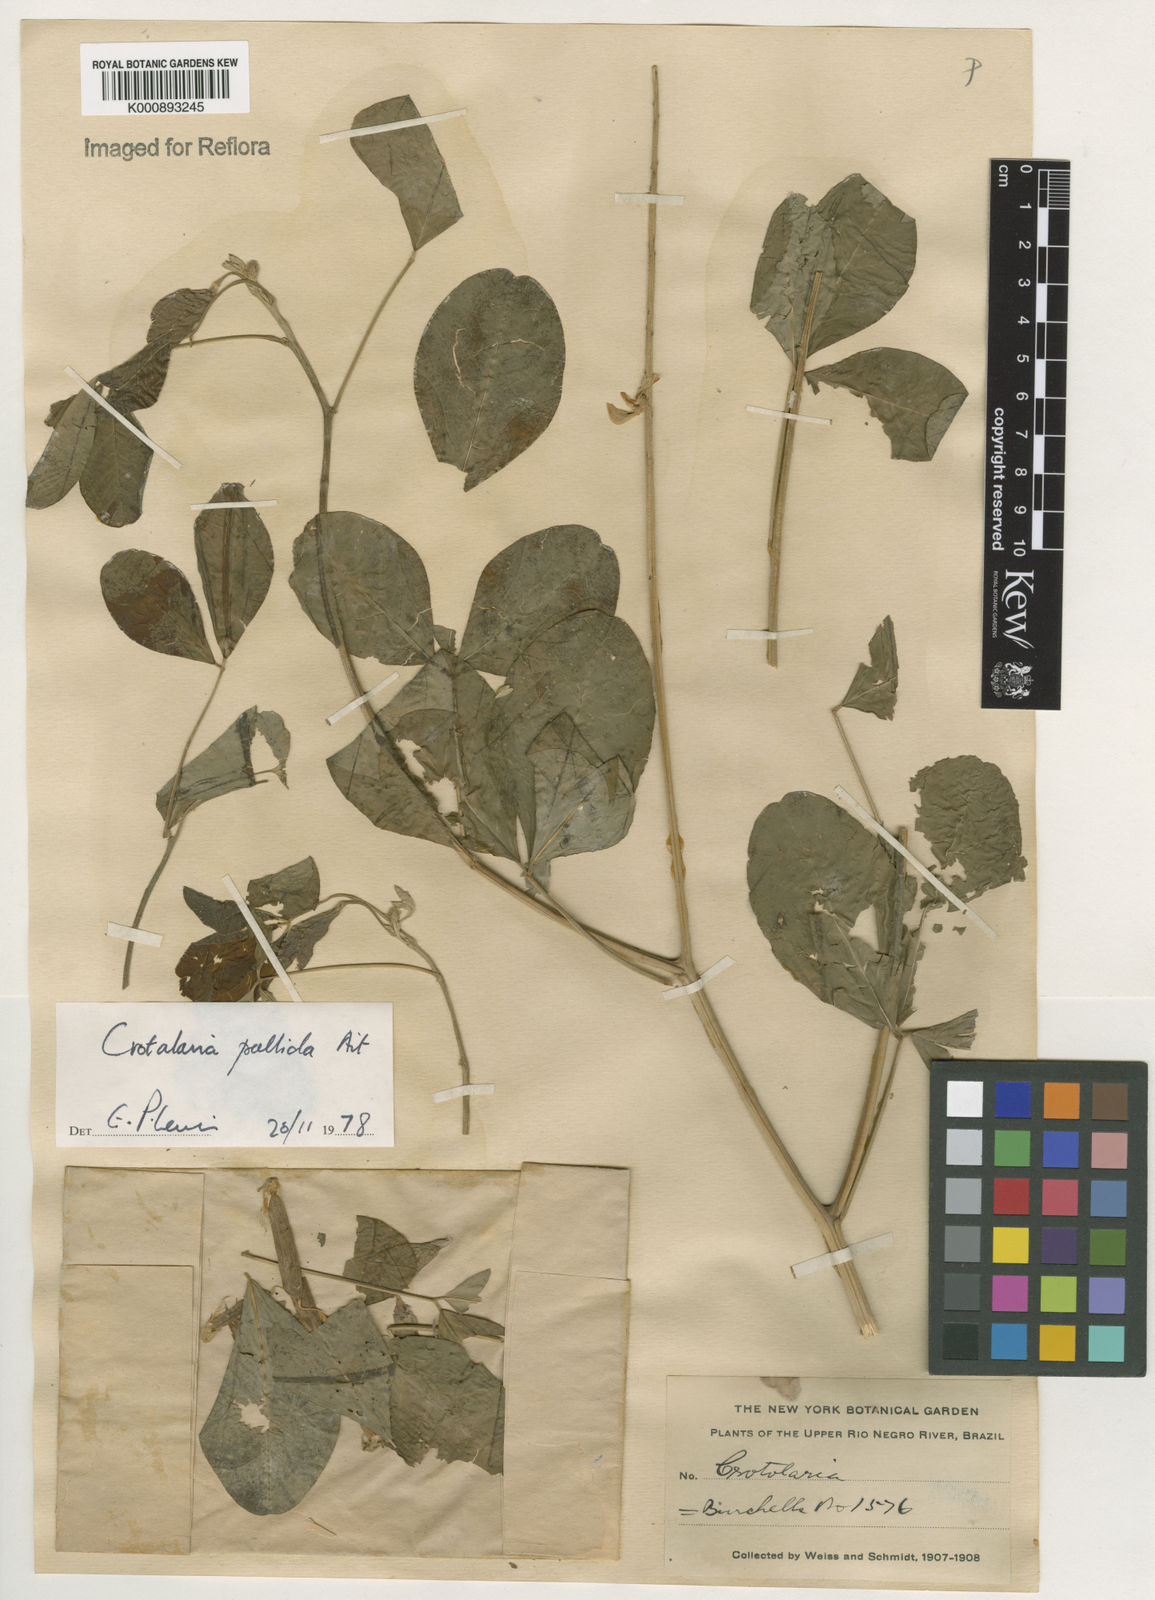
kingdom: Plantae
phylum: Tracheophyta
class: Magnoliopsida
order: Fabales
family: Fabaceae
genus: Crotalaria
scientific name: Crotalaria pallida
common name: Smooth rattlebox
